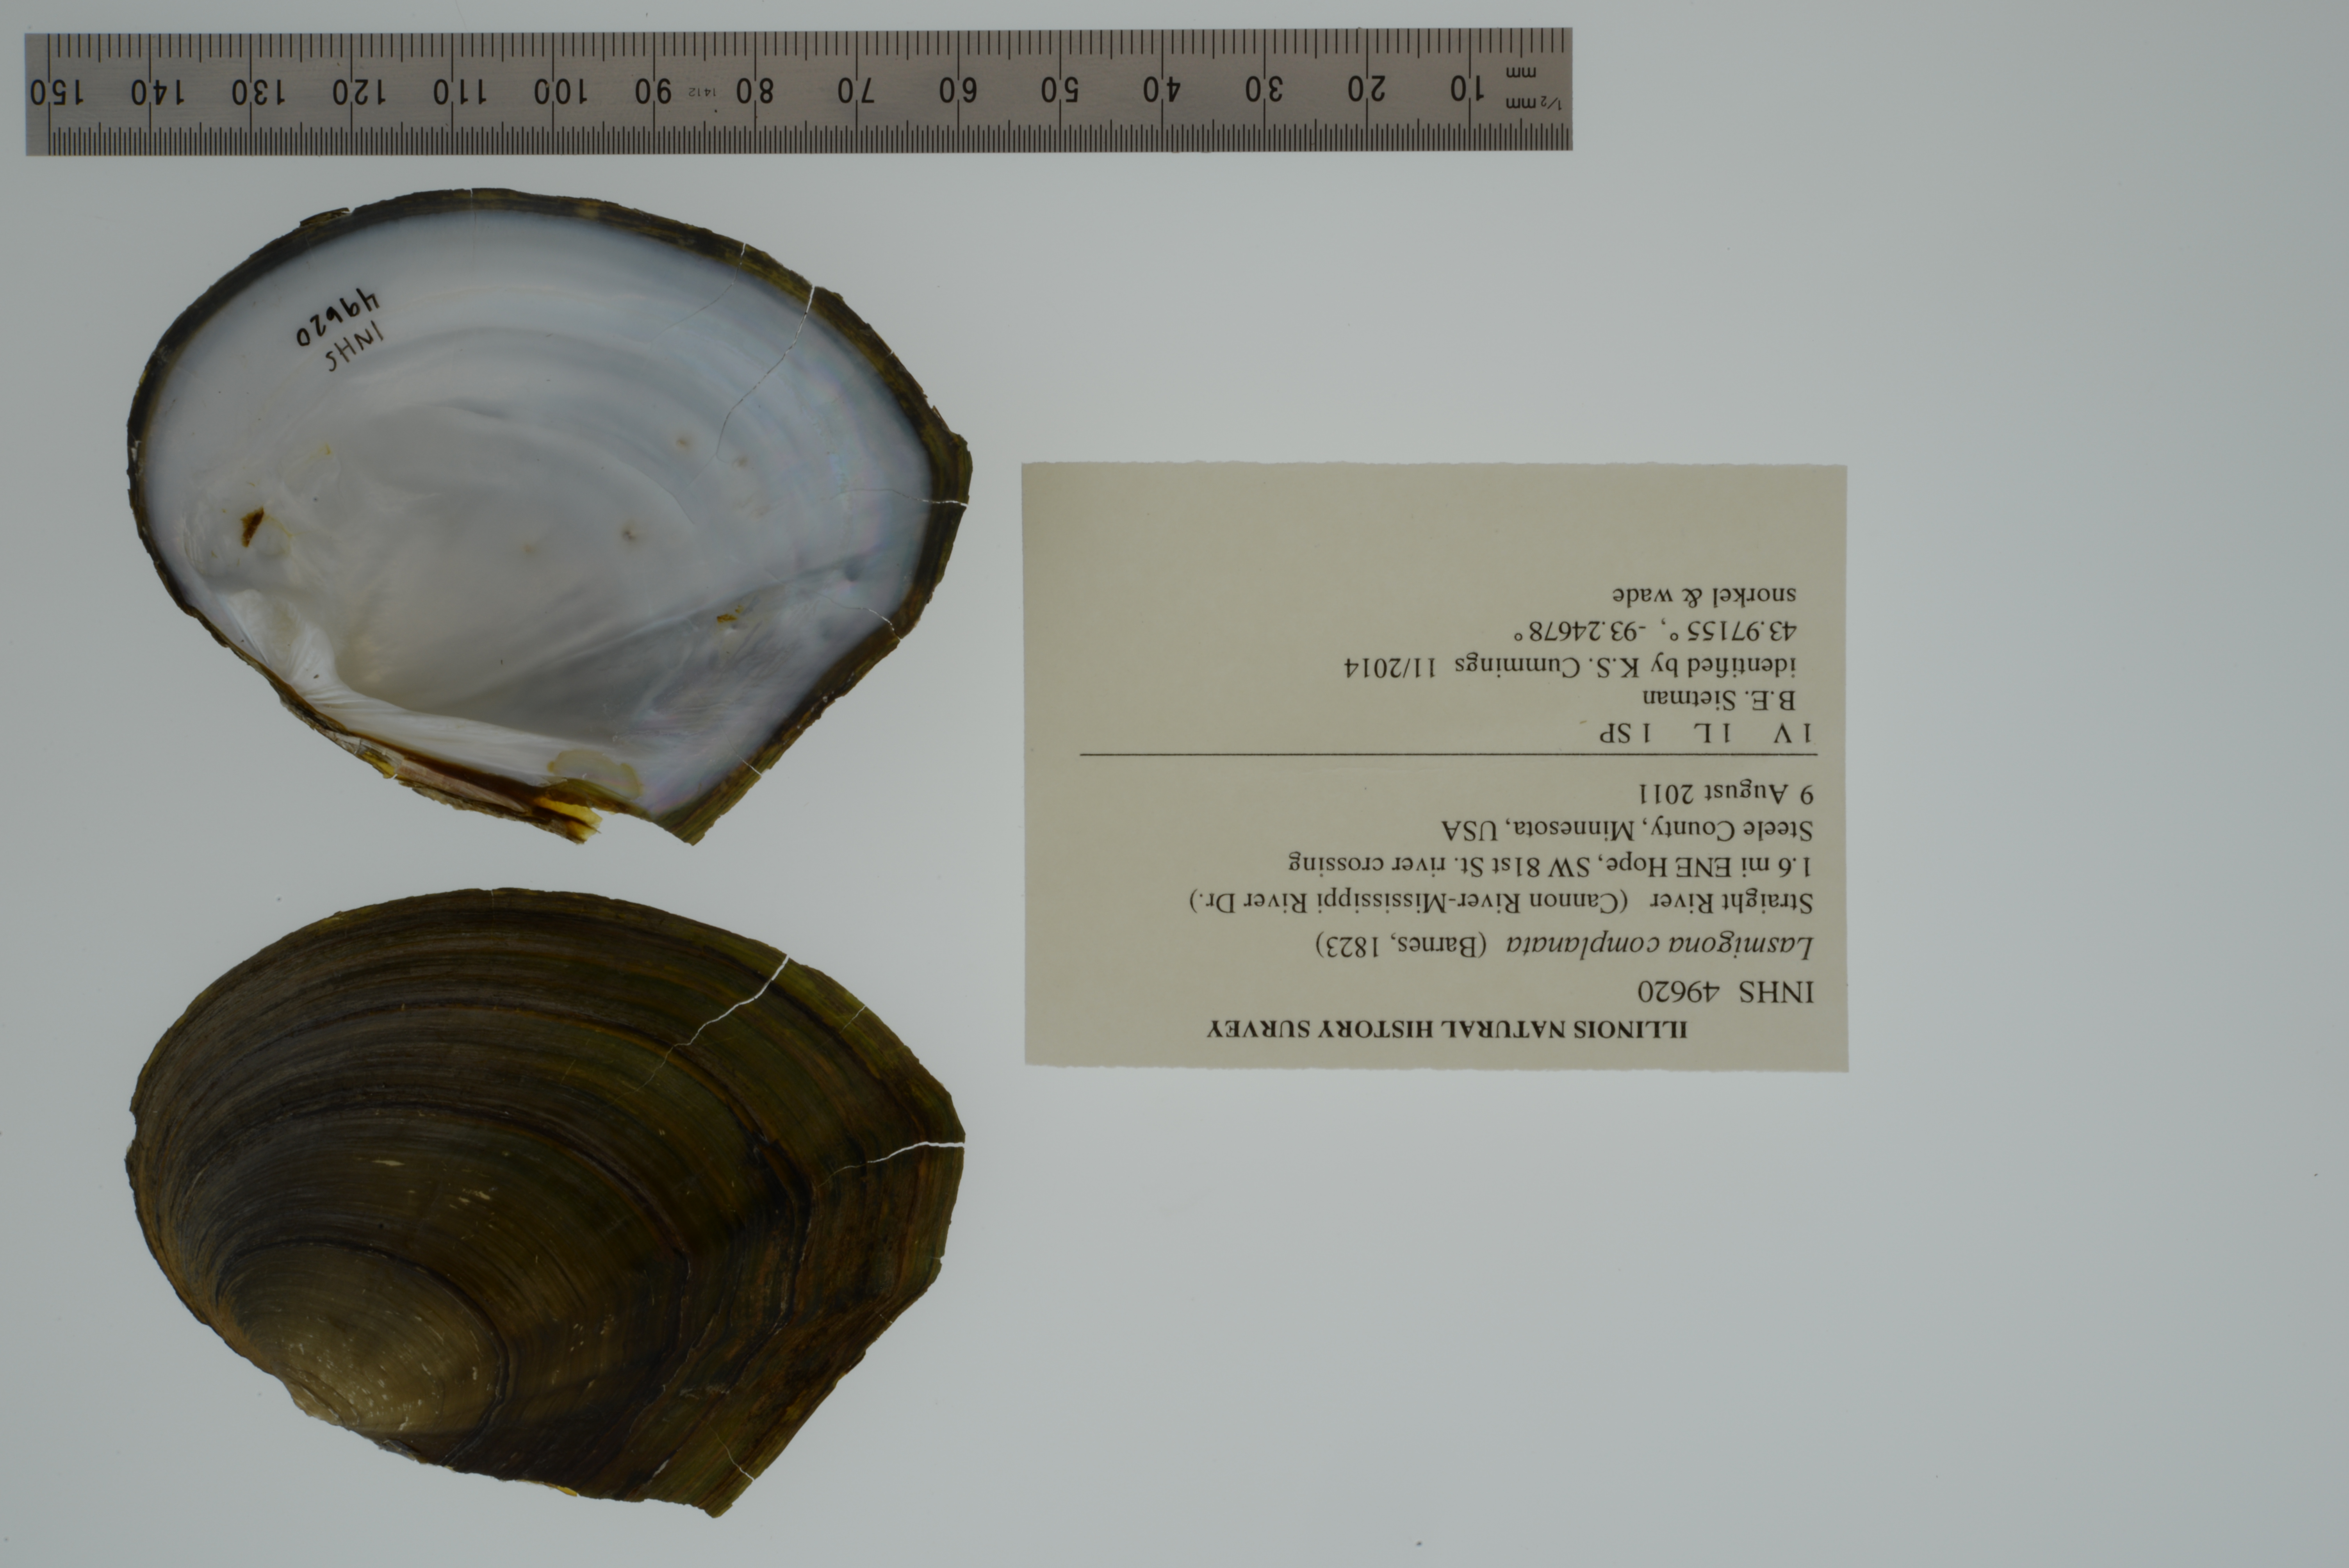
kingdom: Animalia
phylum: Mollusca
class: Bivalvia
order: Unionida
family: Unionidae
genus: Lasmigona
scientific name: Lasmigona complanata
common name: White heelsplitter
